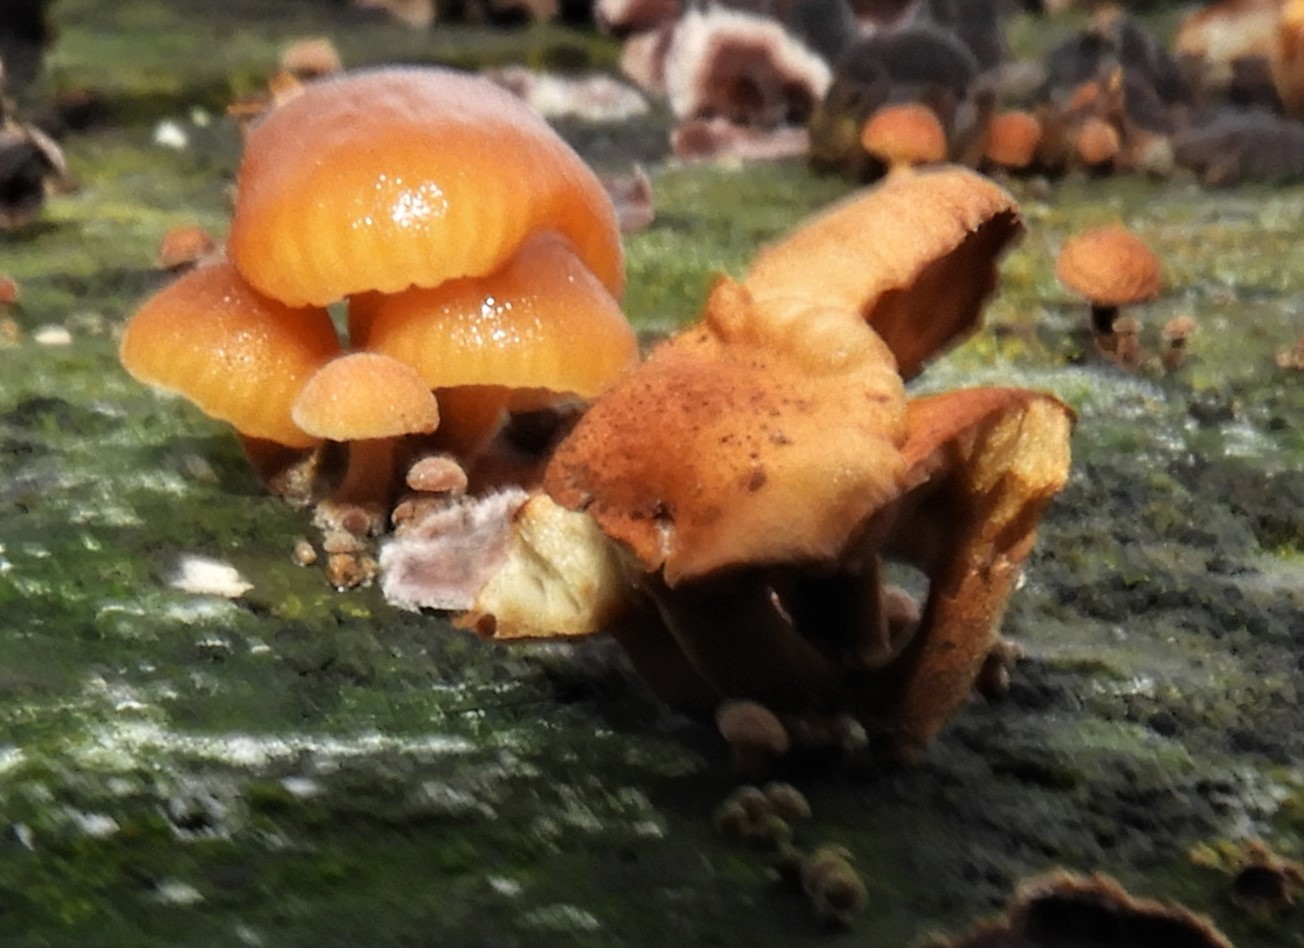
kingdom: Fungi
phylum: Basidiomycota
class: Agaricomycetes
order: Agaricales
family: Physalacriaceae
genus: Flammulina
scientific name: Flammulina velutipes
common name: gul fløjlsfod
